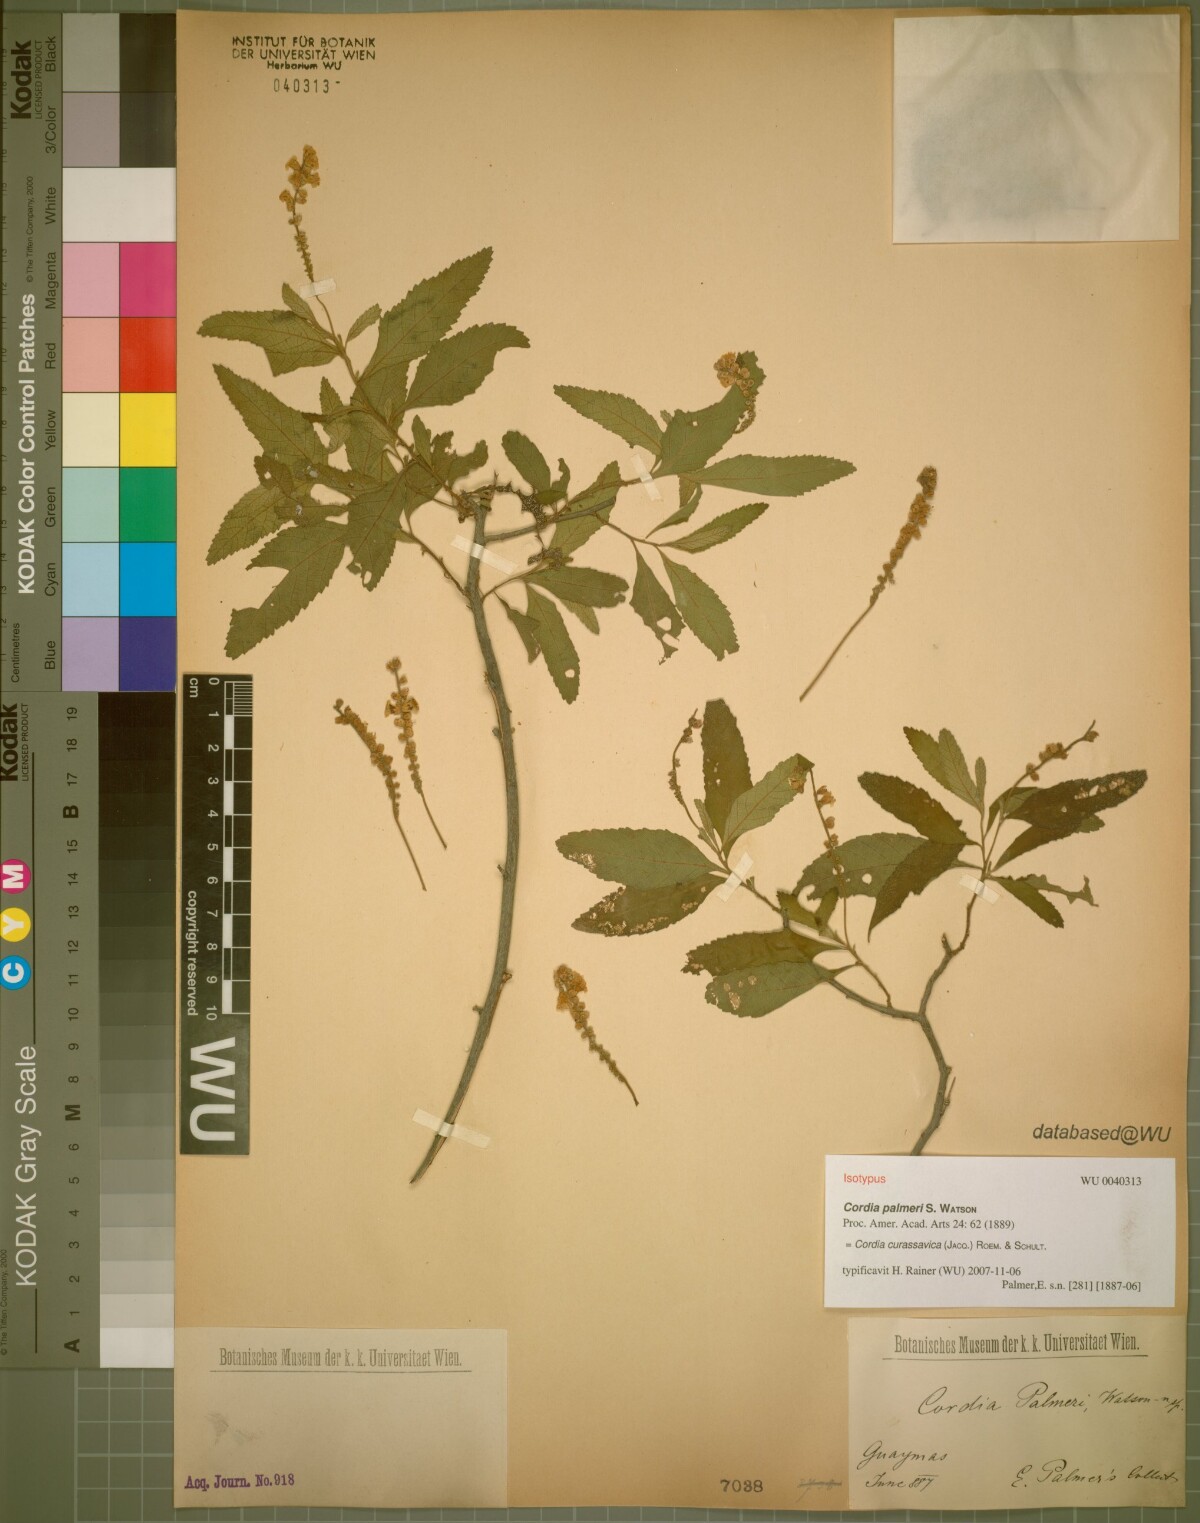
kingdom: Plantae
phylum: Tracheophyta
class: Magnoliopsida
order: Boraginales
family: Cordiaceae
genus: Varronia
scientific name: Varronia curassavica
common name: Black sage
